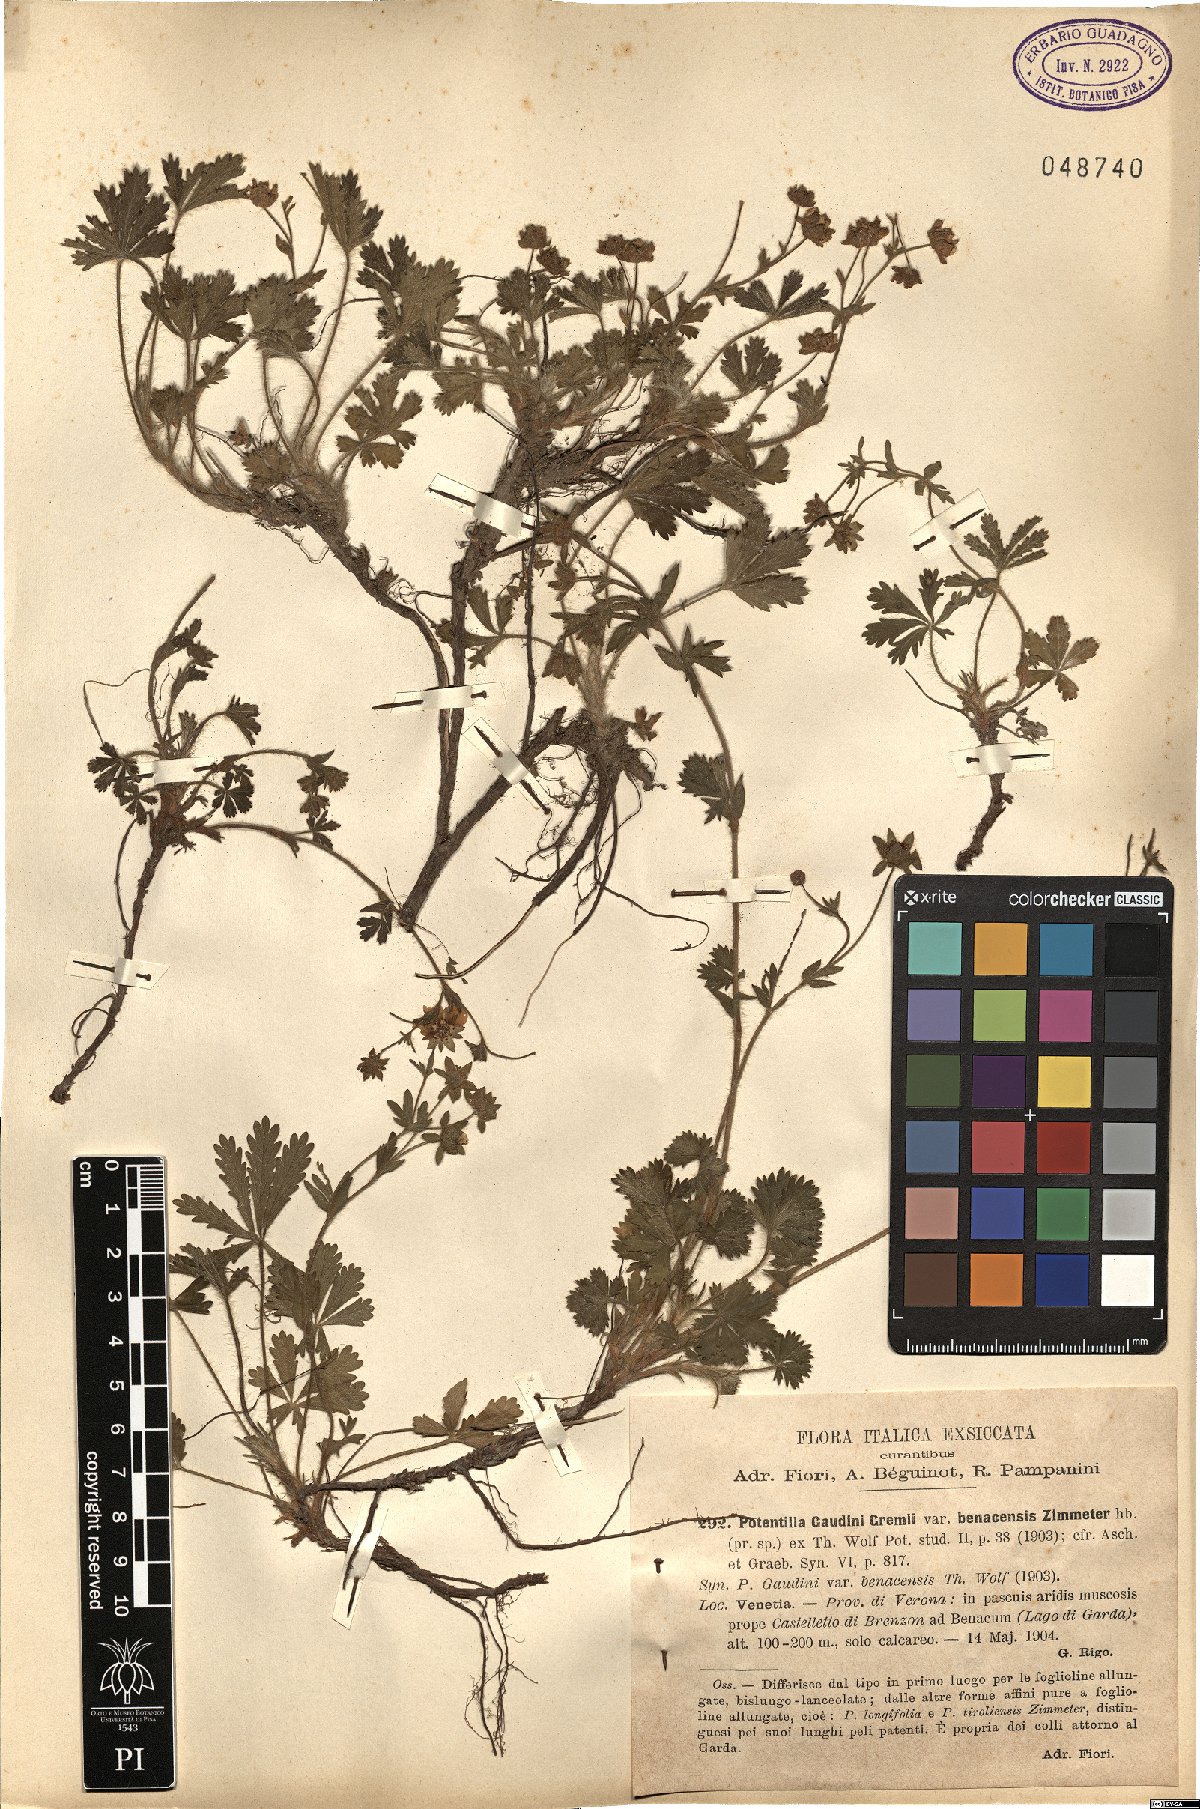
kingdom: Plantae
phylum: Tracheophyta
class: Magnoliopsida
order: Rosales
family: Rosaceae
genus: Potentilla
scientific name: Potentilla pusilla
